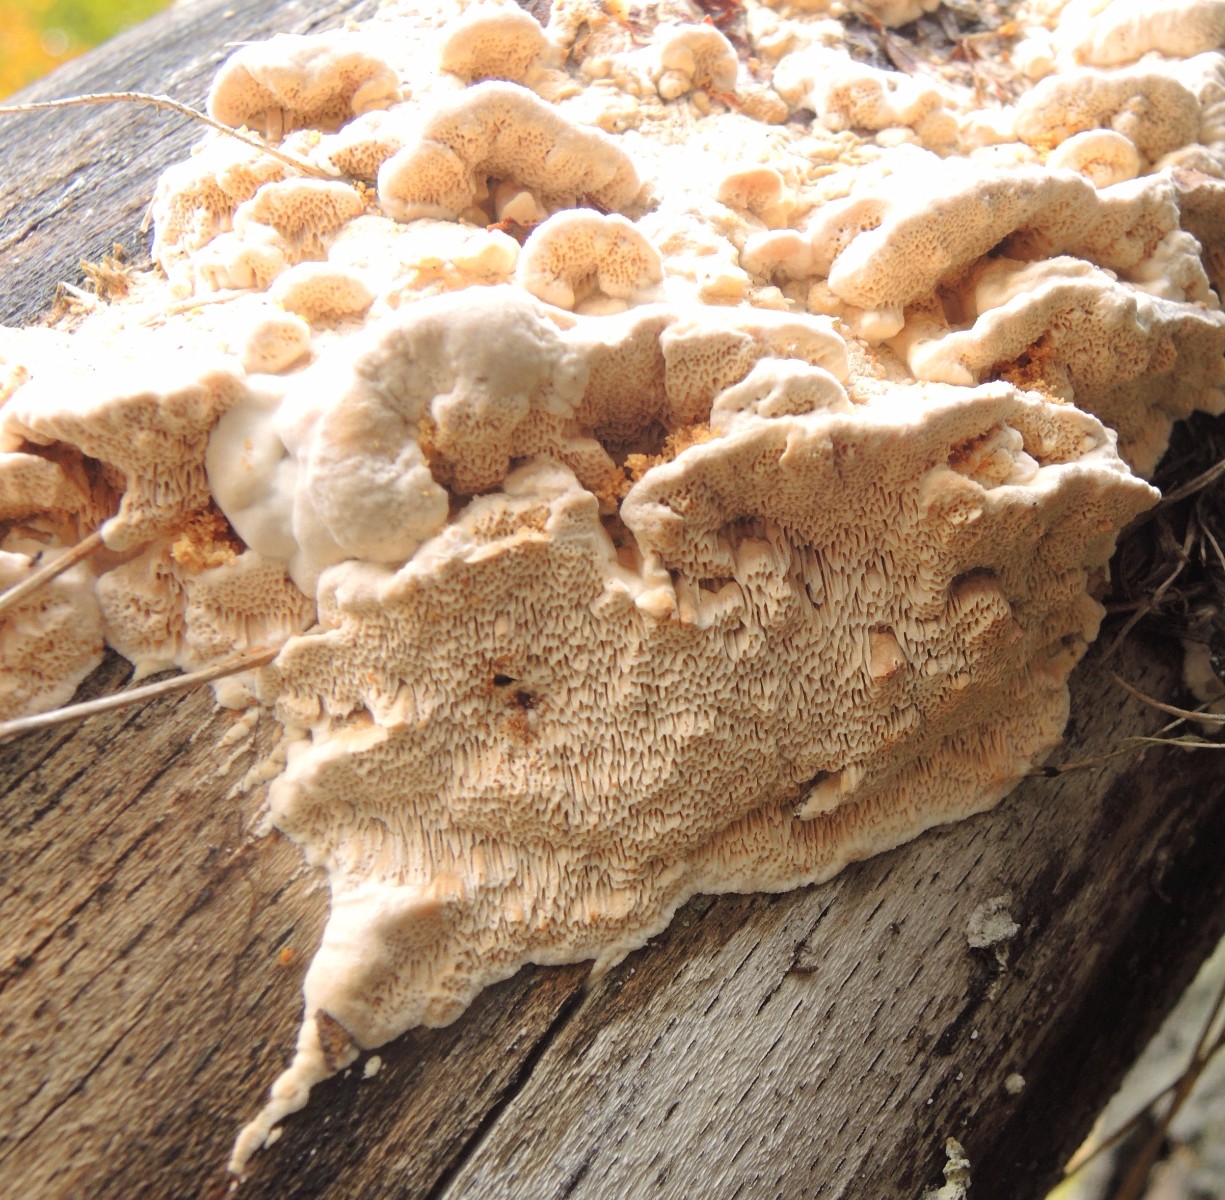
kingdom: Fungi
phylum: Basidiomycota
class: Agaricomycetes
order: Polyporales
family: Fomitopsidaceae
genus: Brunneoporus
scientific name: Brunneoporus kuzyanus
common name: brunlig sejporesvamp
